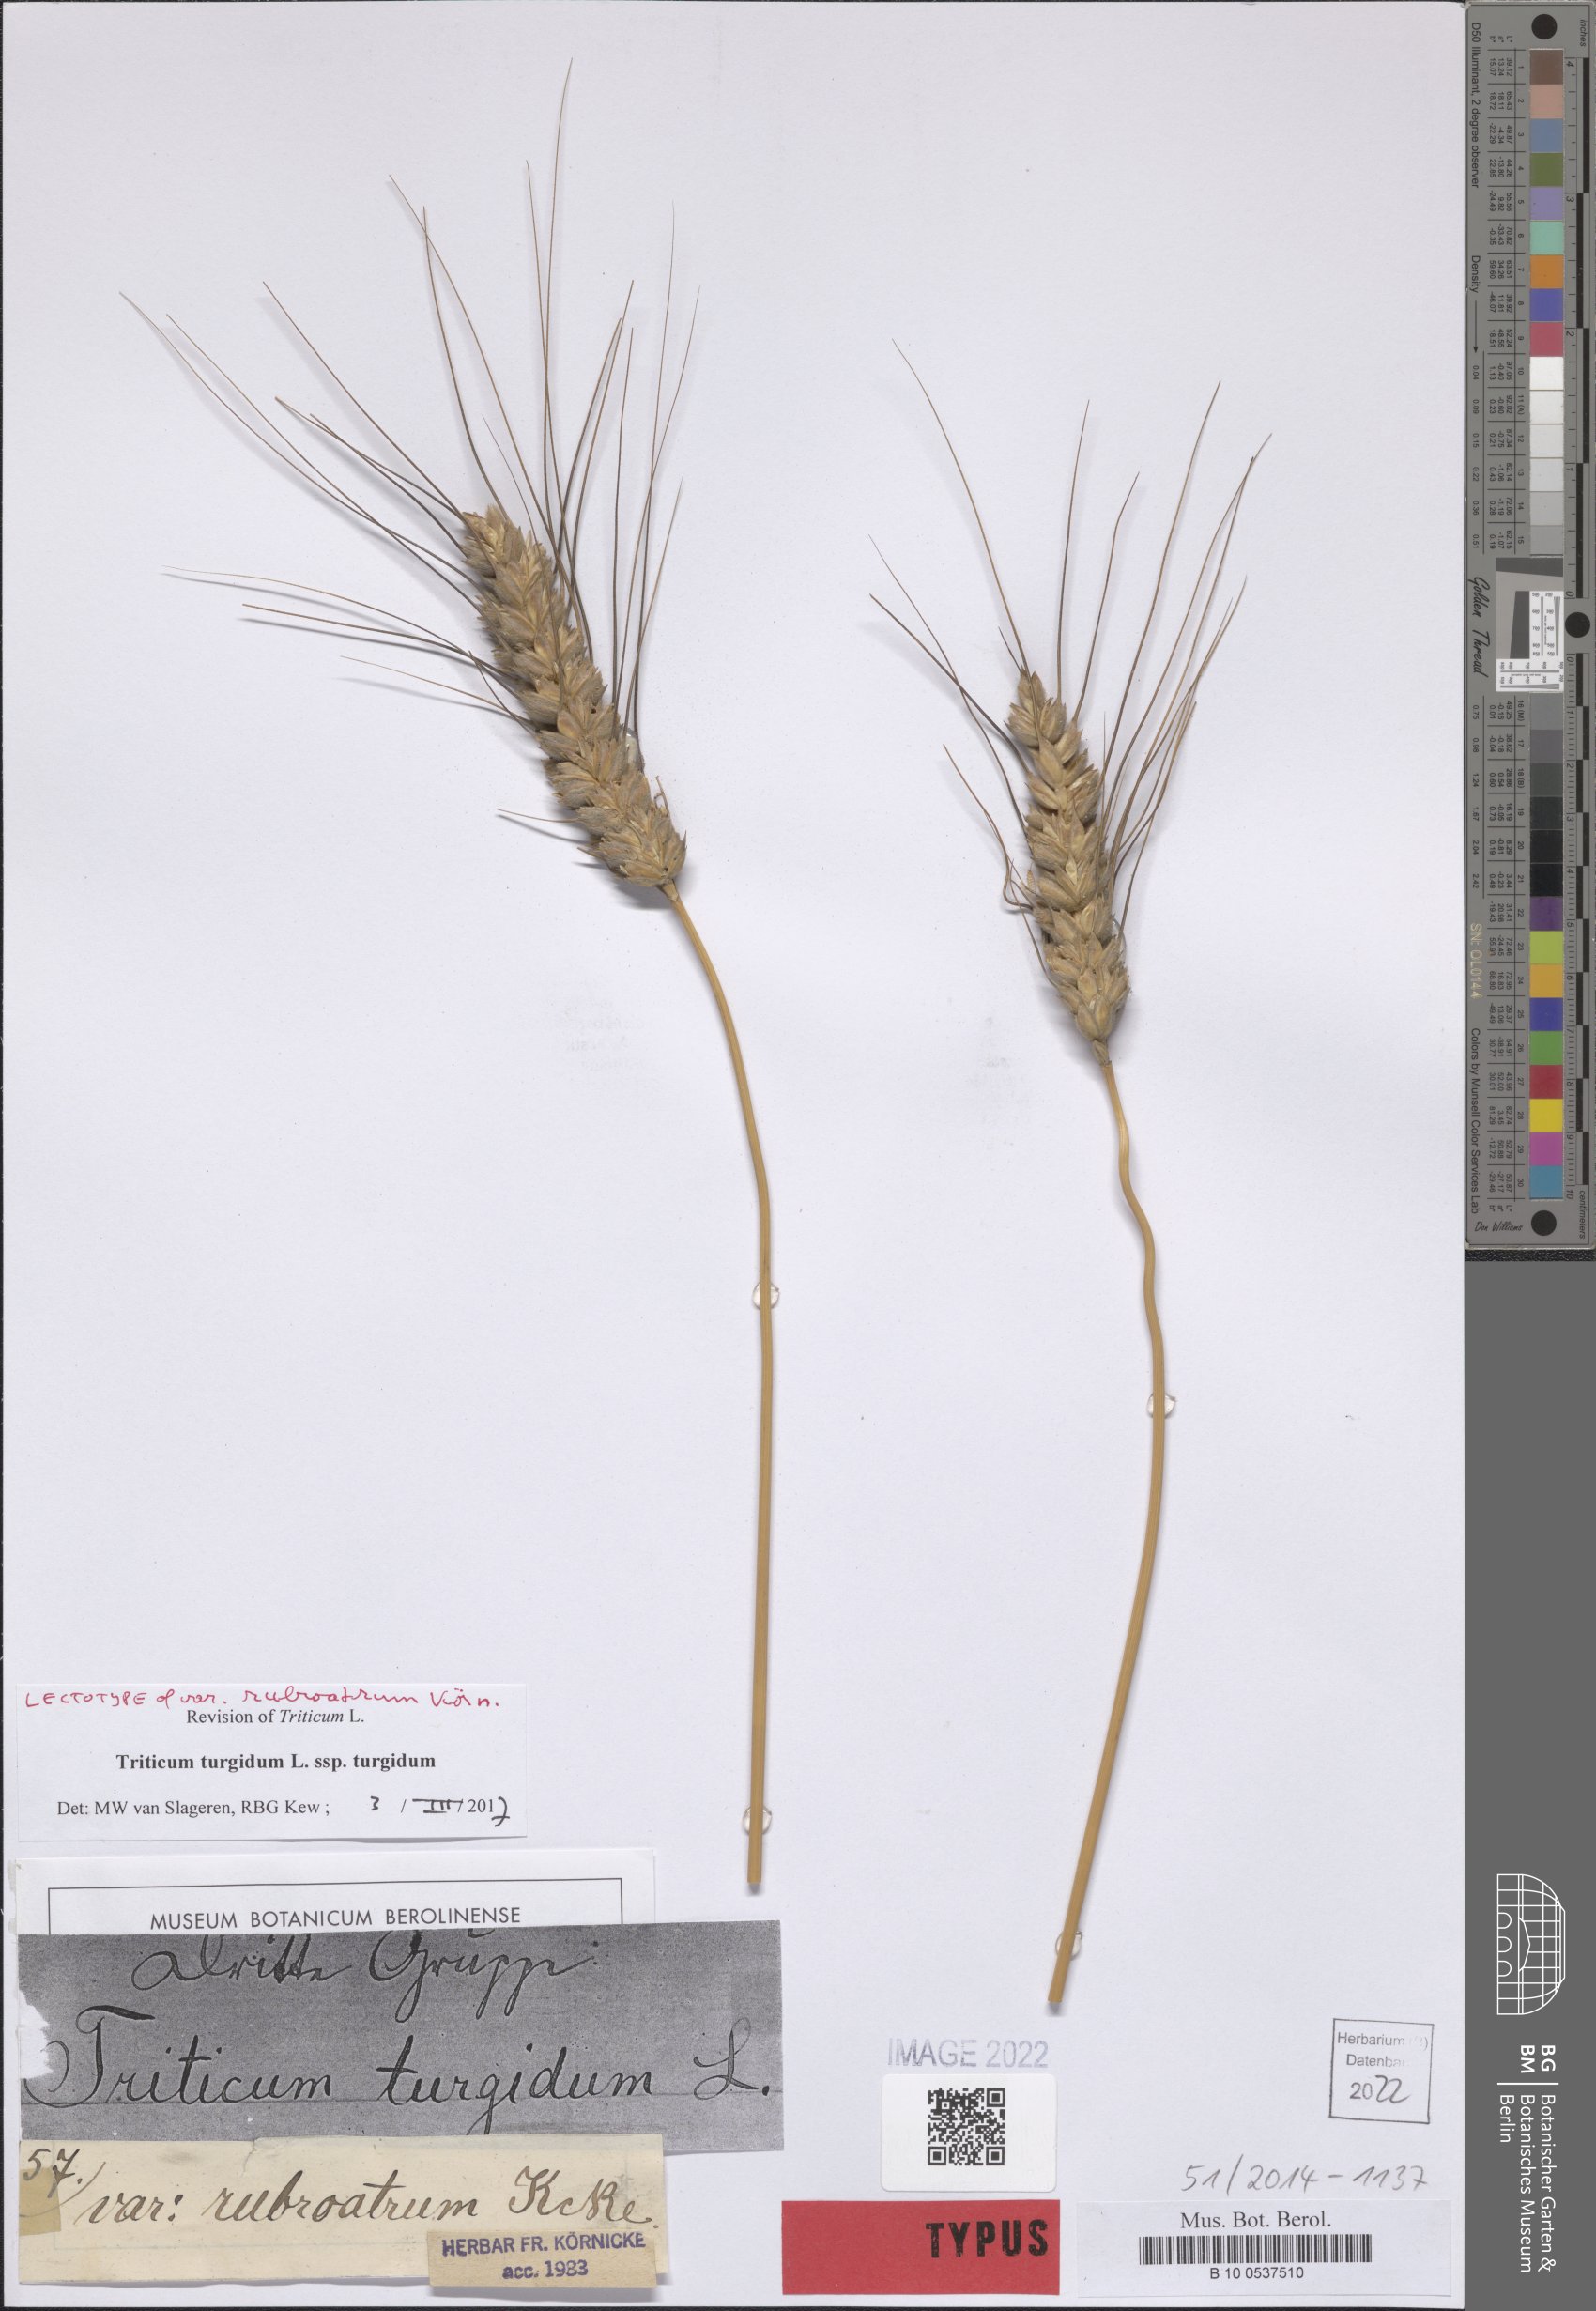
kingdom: Plantae
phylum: Tracheophyta
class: Liliopsida
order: Poales
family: Poaceae
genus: Triticum
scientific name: Triticum turgidum
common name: Rivet wheat
